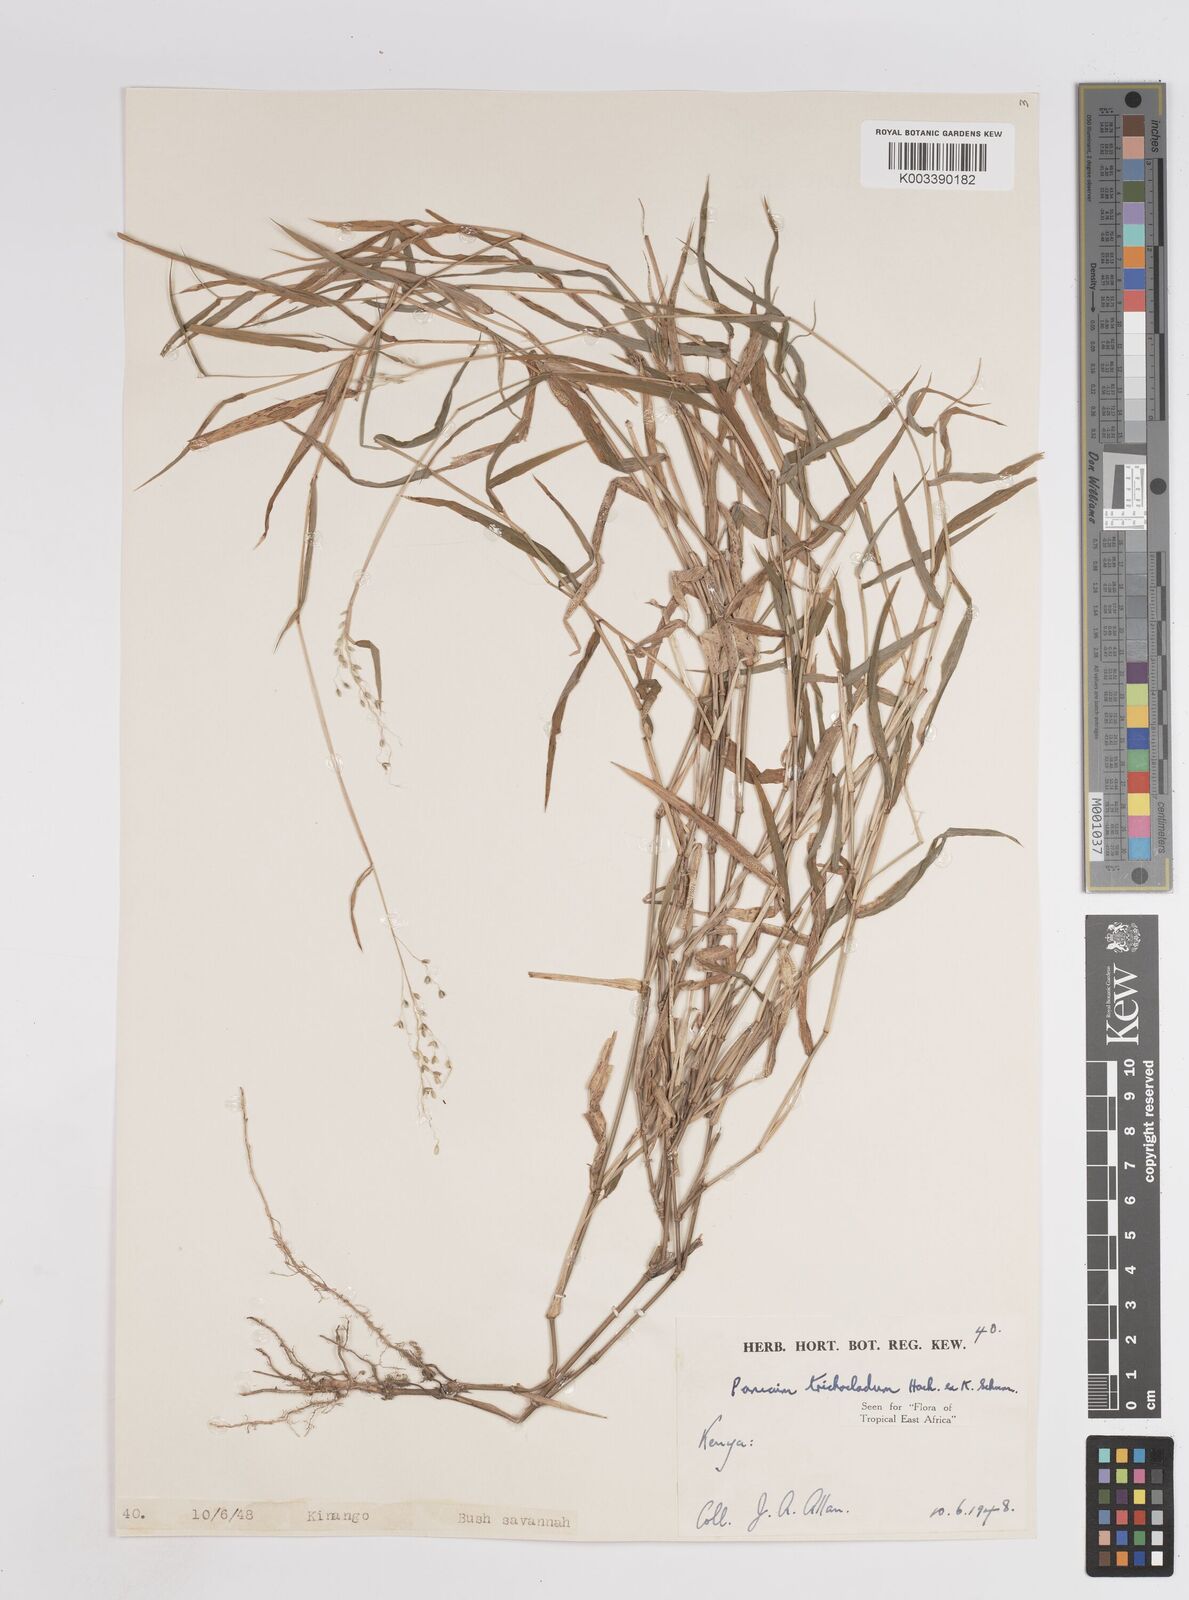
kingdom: Plantae
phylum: Tracheophyta
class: Liliopsida
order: Poales
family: Poaceae
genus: Panicum
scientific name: Panicum trichocladum
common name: Donkey grass
